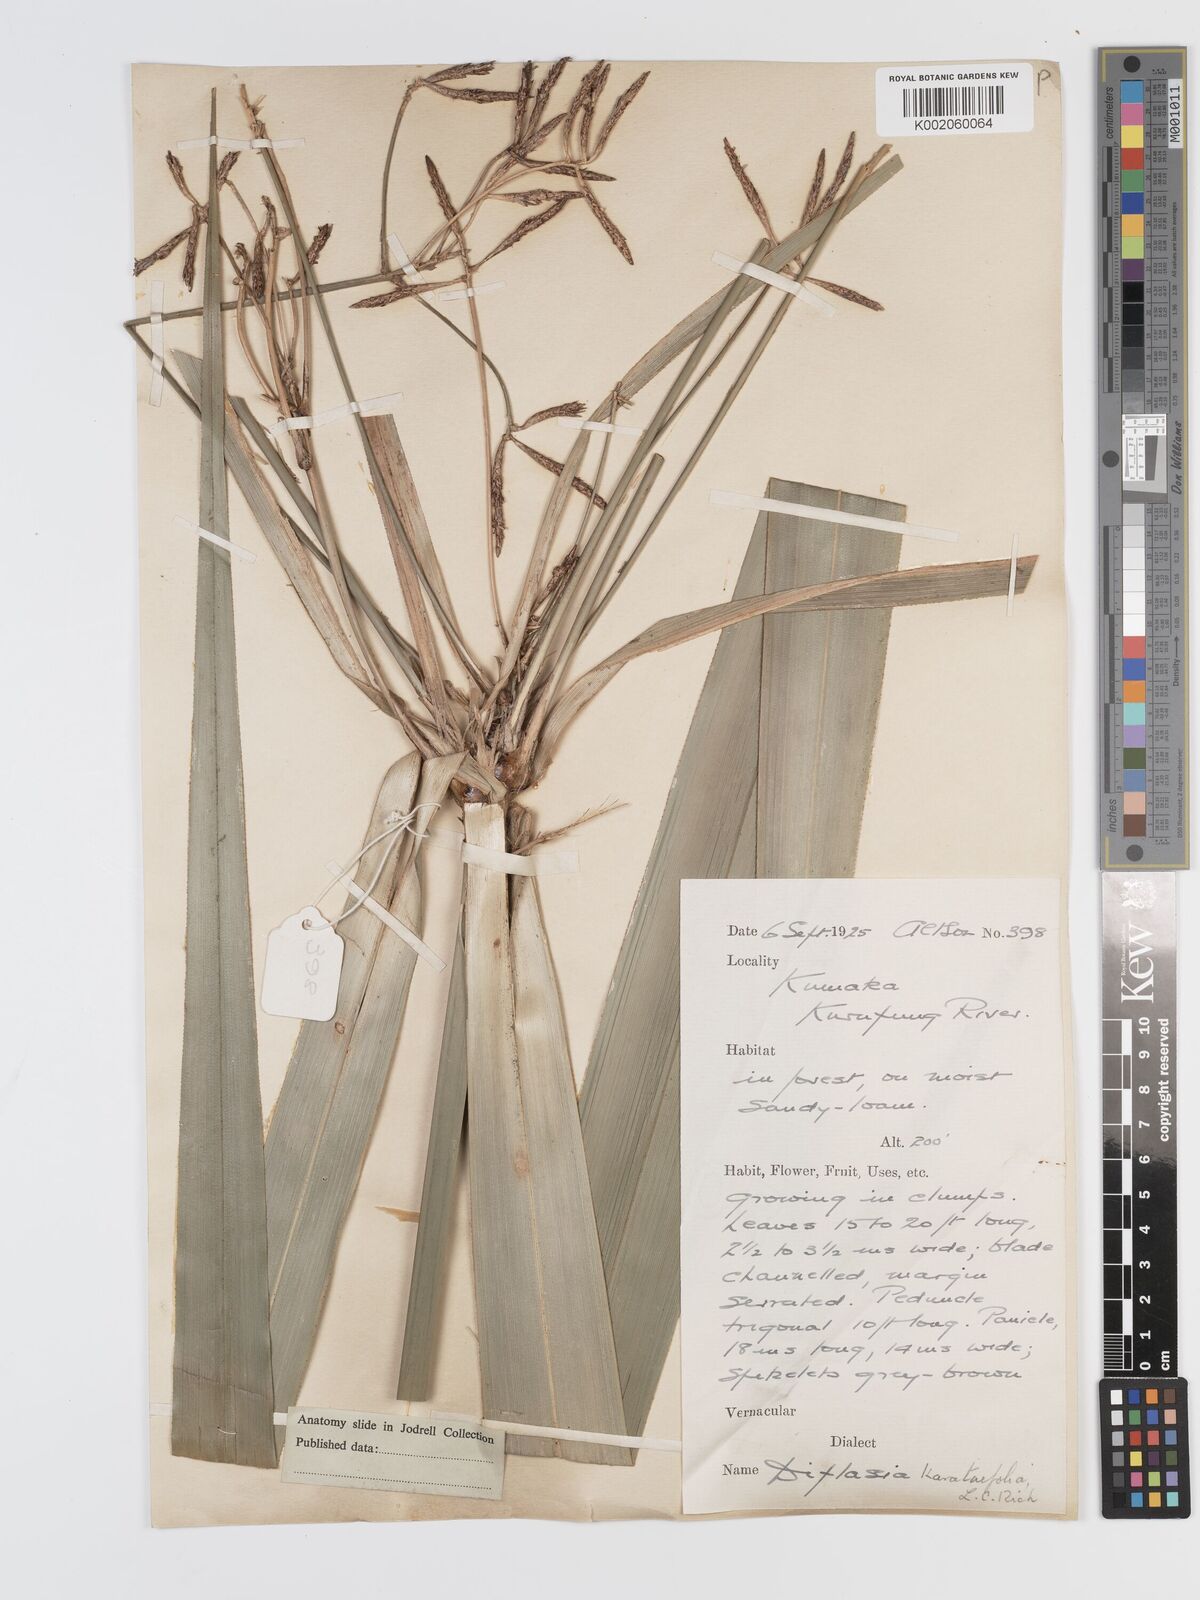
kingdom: Plantae
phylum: Tracheophyta
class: Liliopsida
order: Poales
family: Cyperaceae
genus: Diplasia
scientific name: Diplasia karatifolia
